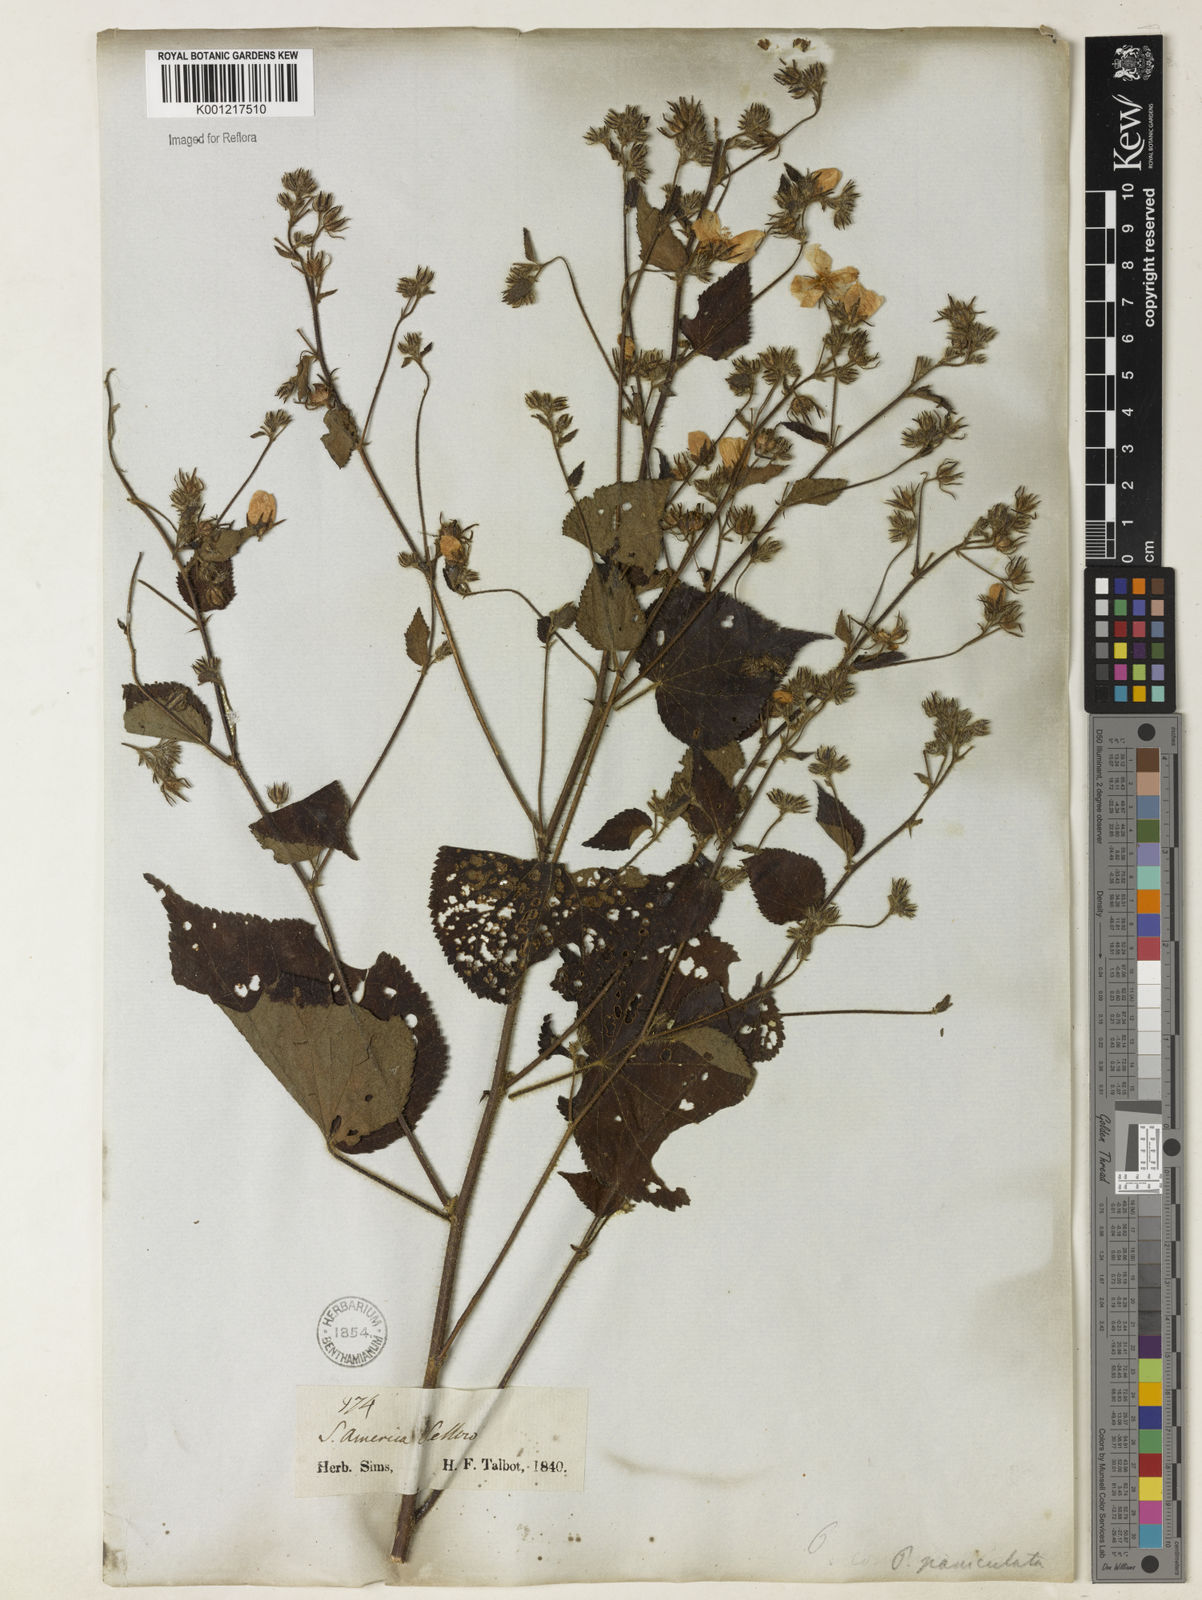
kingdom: Plantae
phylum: Tracheophyta
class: Magnoliopsida
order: Malvales
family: Malvaceae
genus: Pavonia
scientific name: Pavonia paniculata
